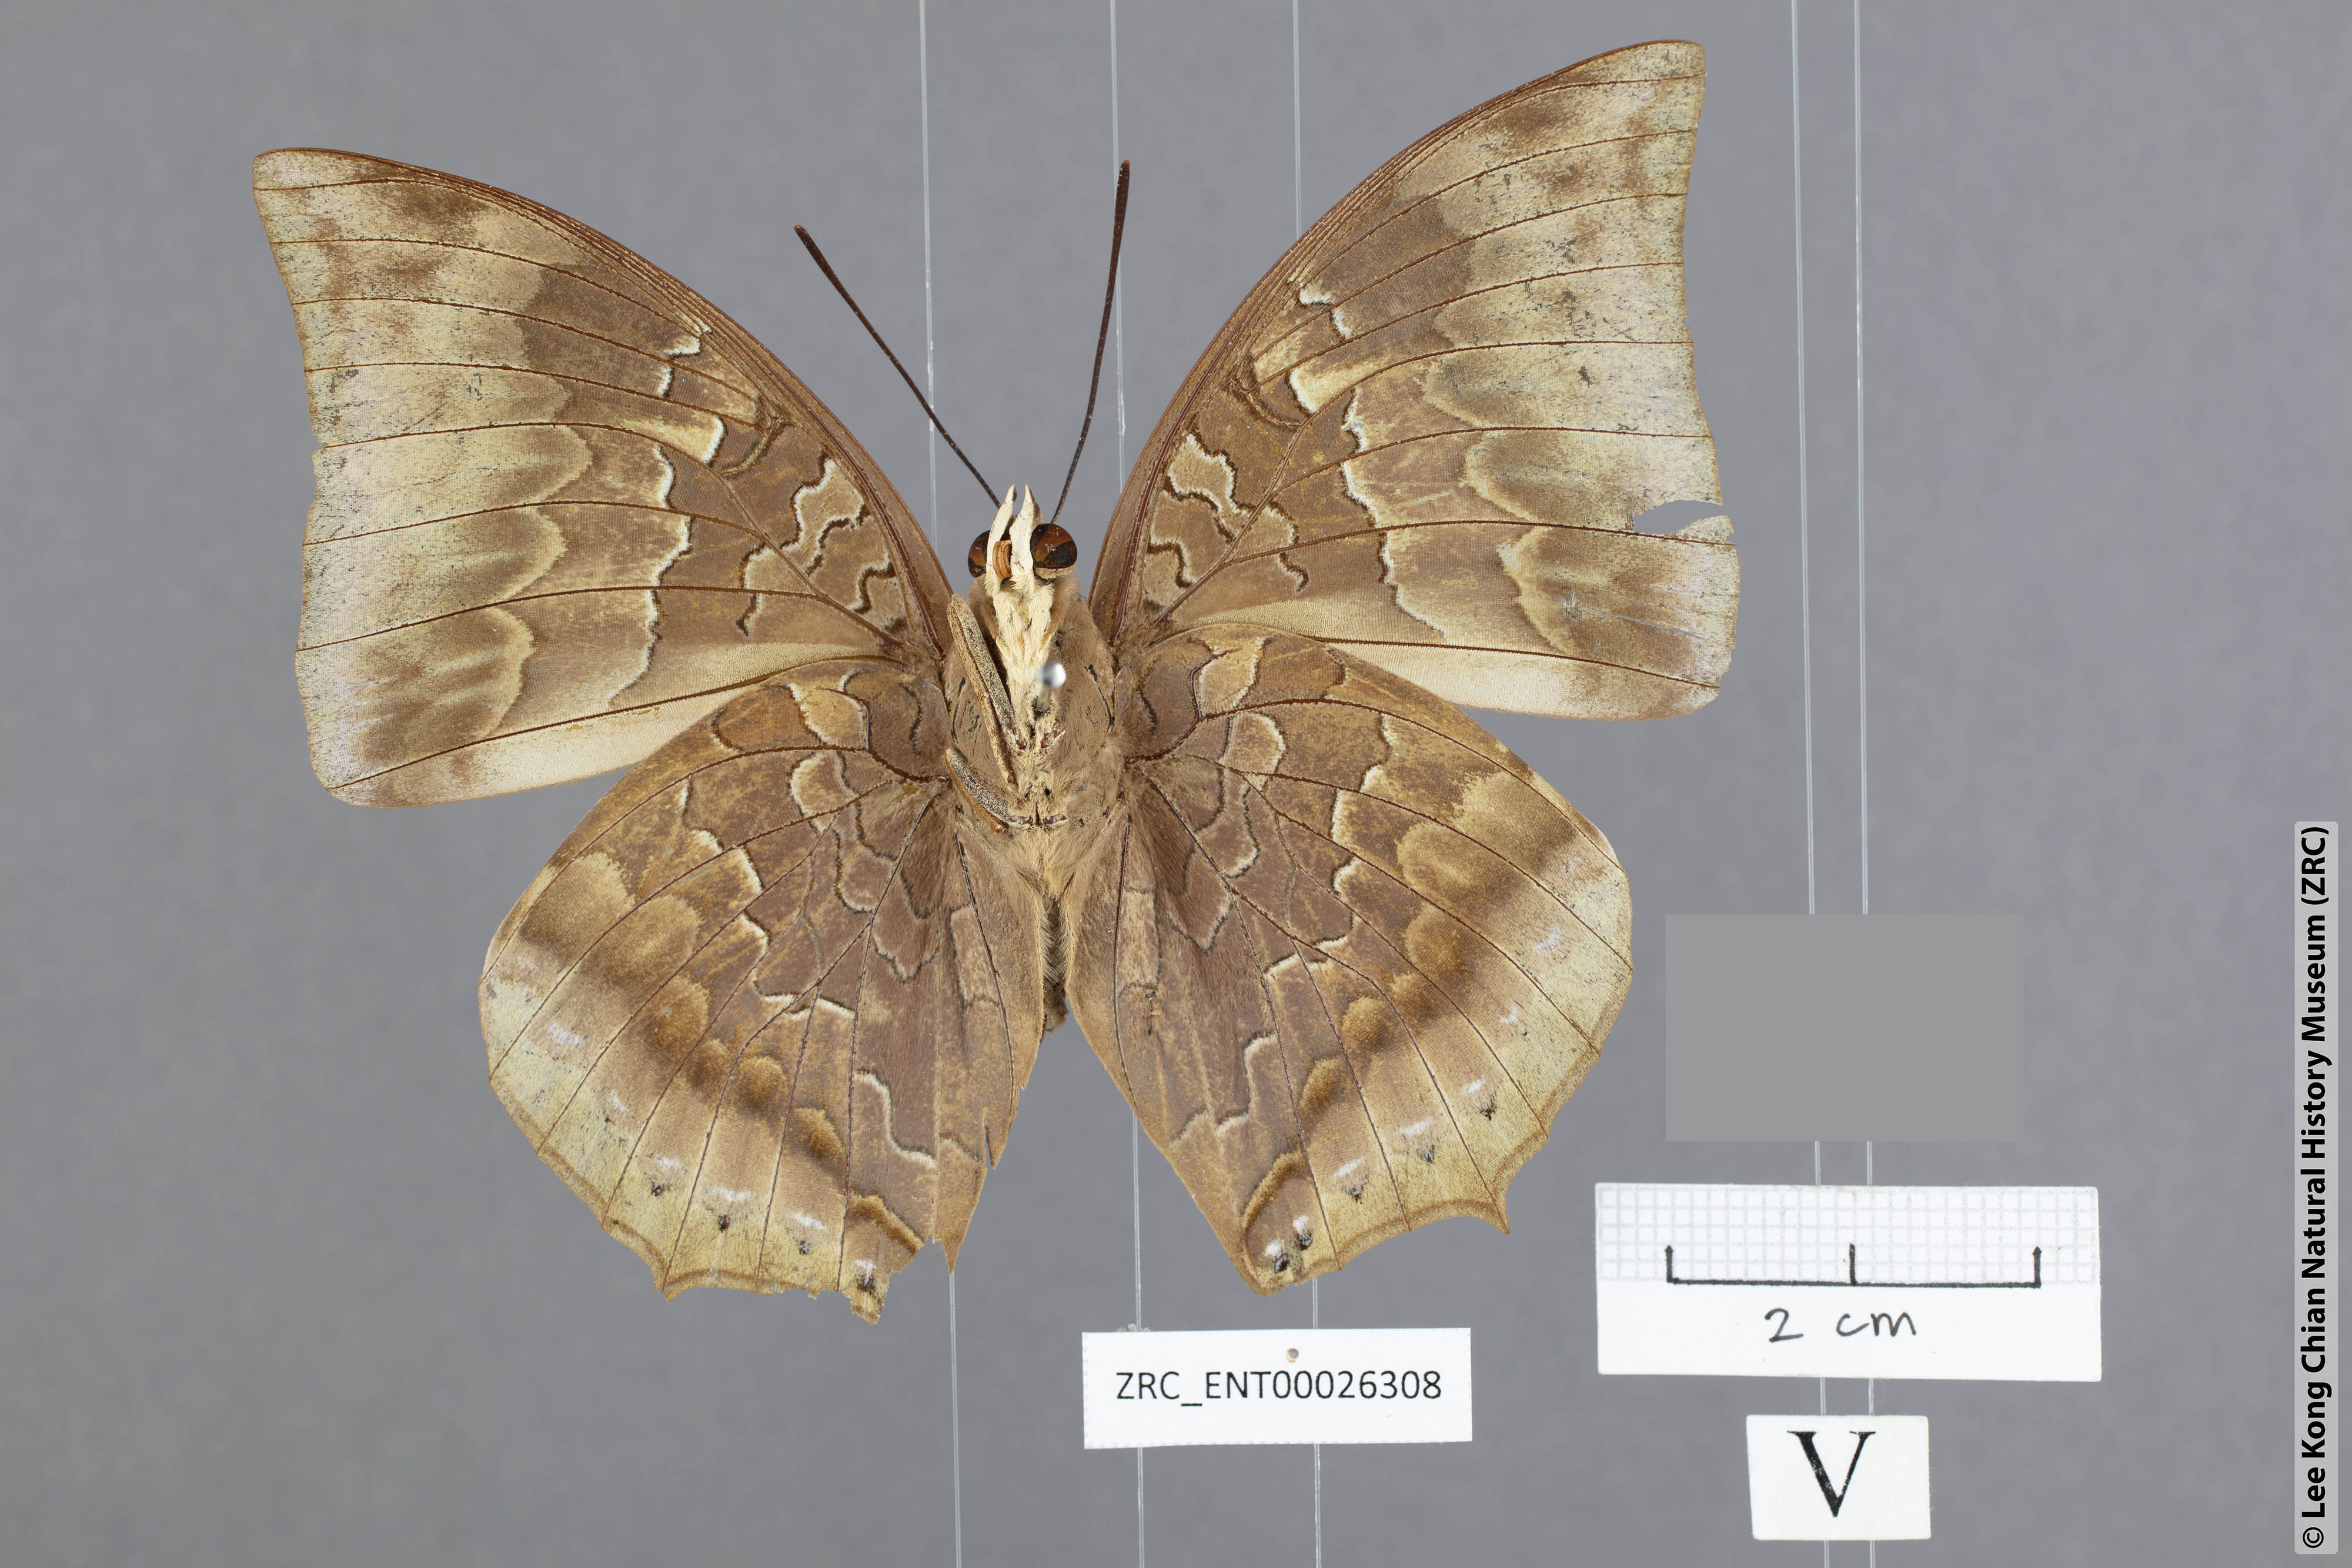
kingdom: Animalia
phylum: Arthropoda
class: Insecta
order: Lepidoptera
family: Nymphalidae
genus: Charaxes
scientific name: Charaxes borneensis
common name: White-banded rajah
